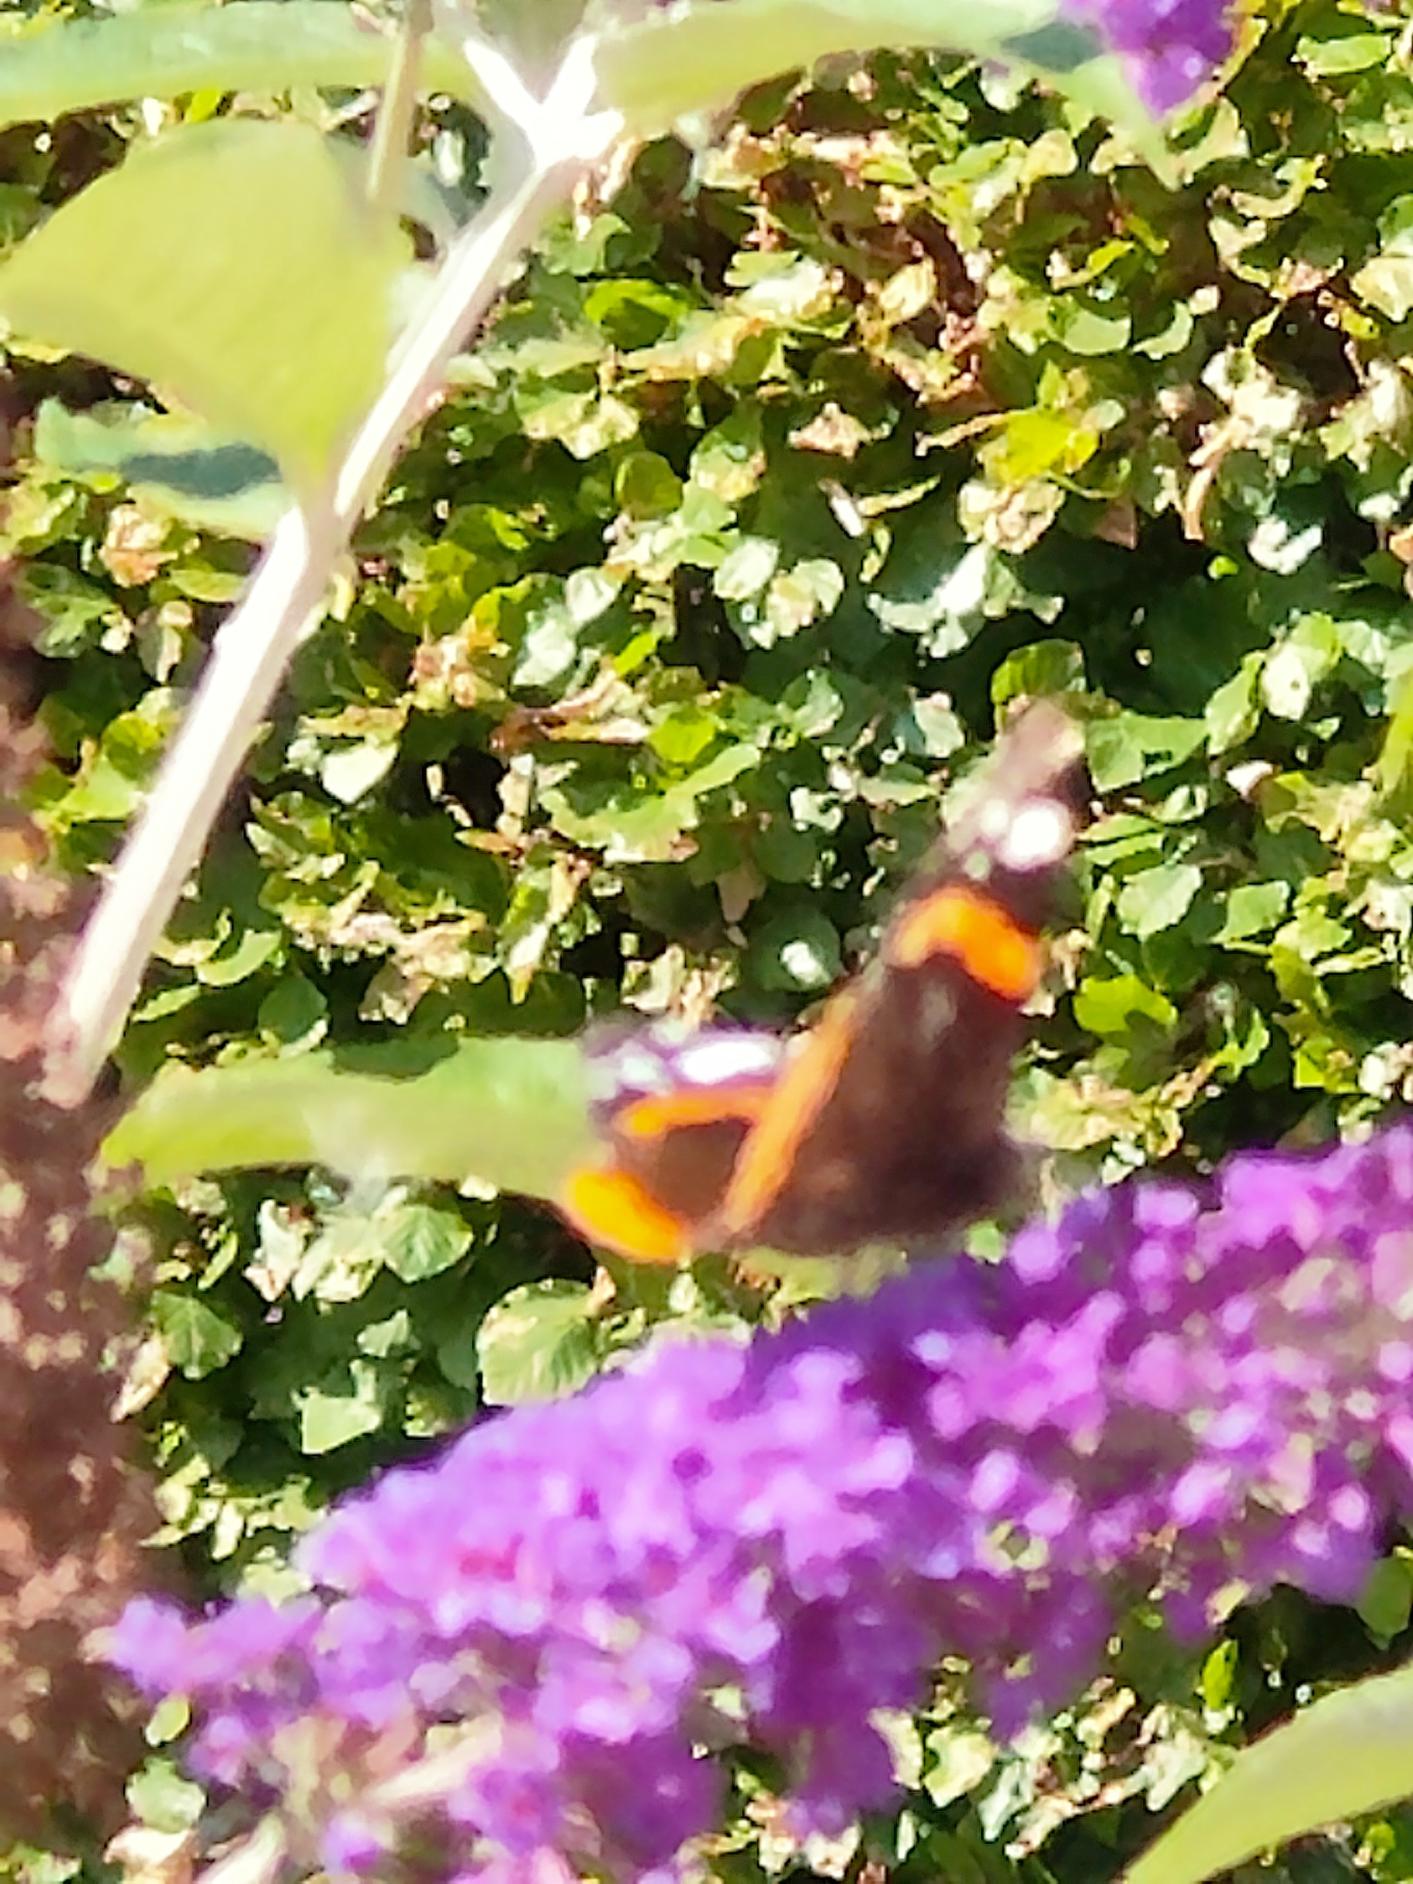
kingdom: Animalia
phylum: Arthropoda
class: Insecta
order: Lepidoptera
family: Nymphalidae
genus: Vanessa
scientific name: Vanessa atalanta
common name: Admiral
